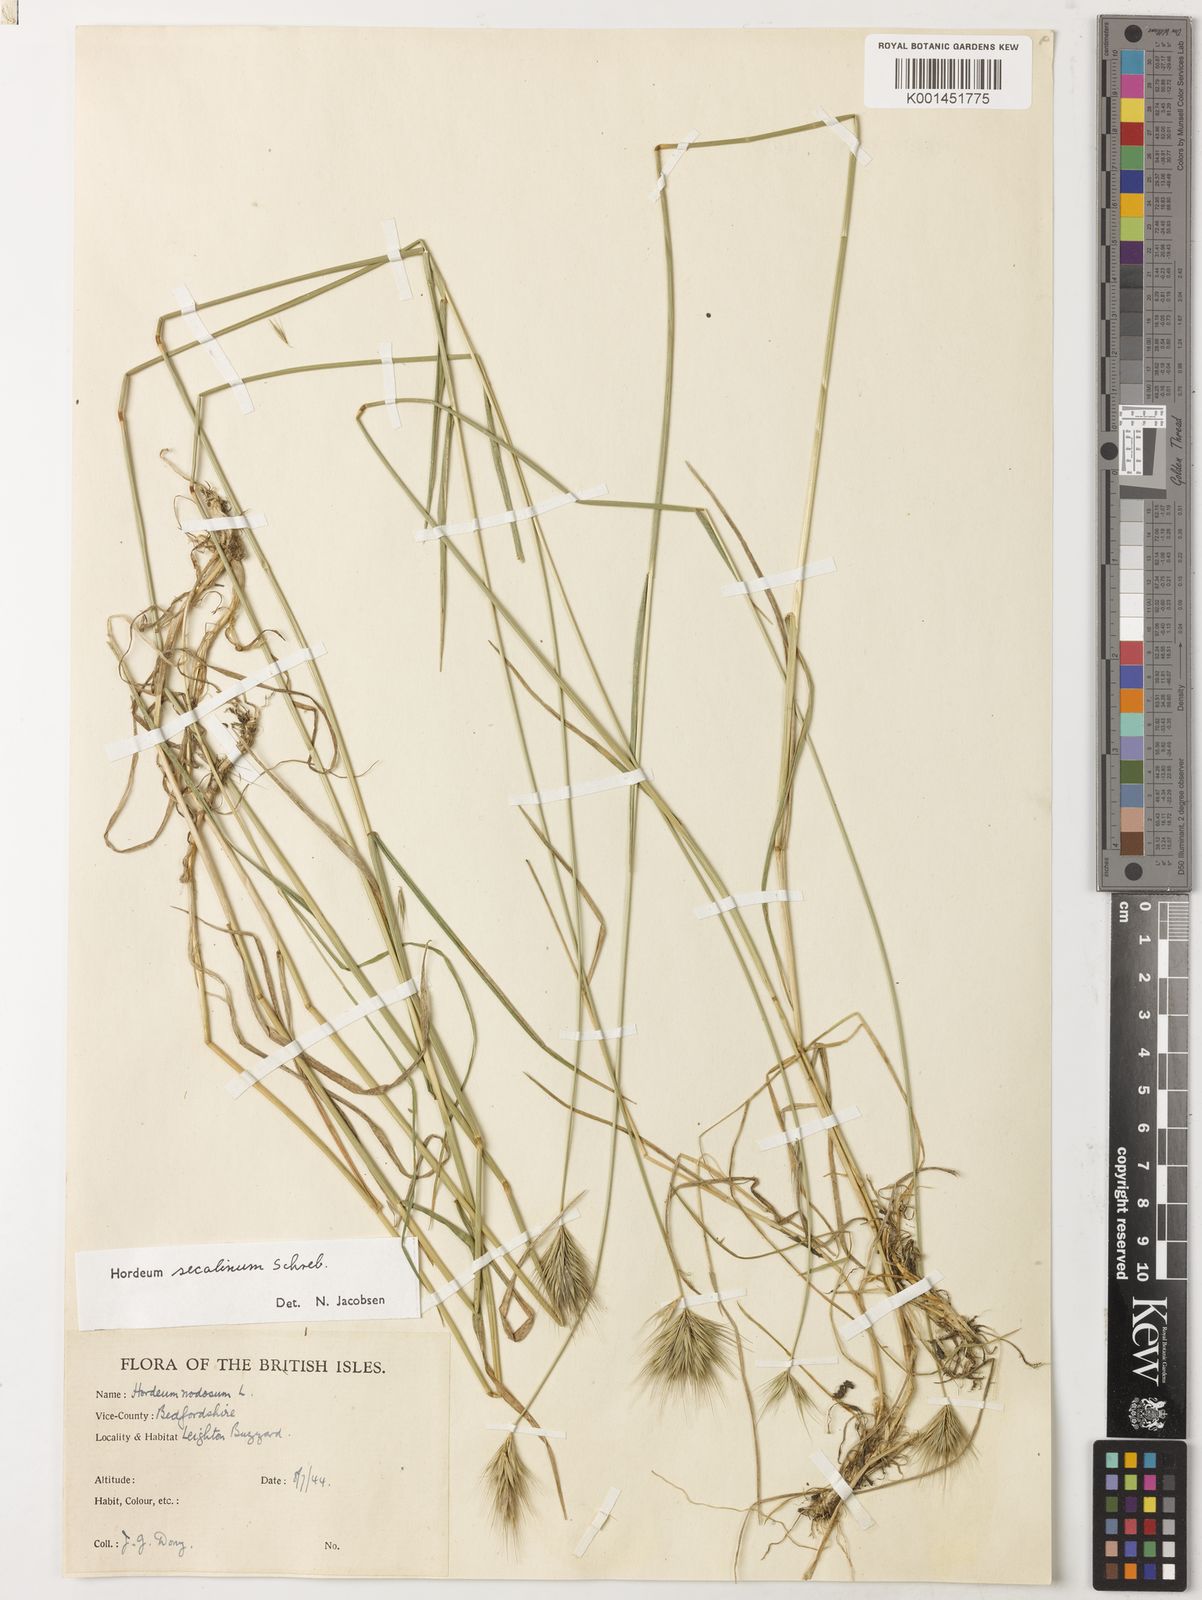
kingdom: Plantae
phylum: Tracheophyta
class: Liliopsida
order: Poales
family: Poaceae
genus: Hordeum
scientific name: Hordeum secalinum
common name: Meadow barley
